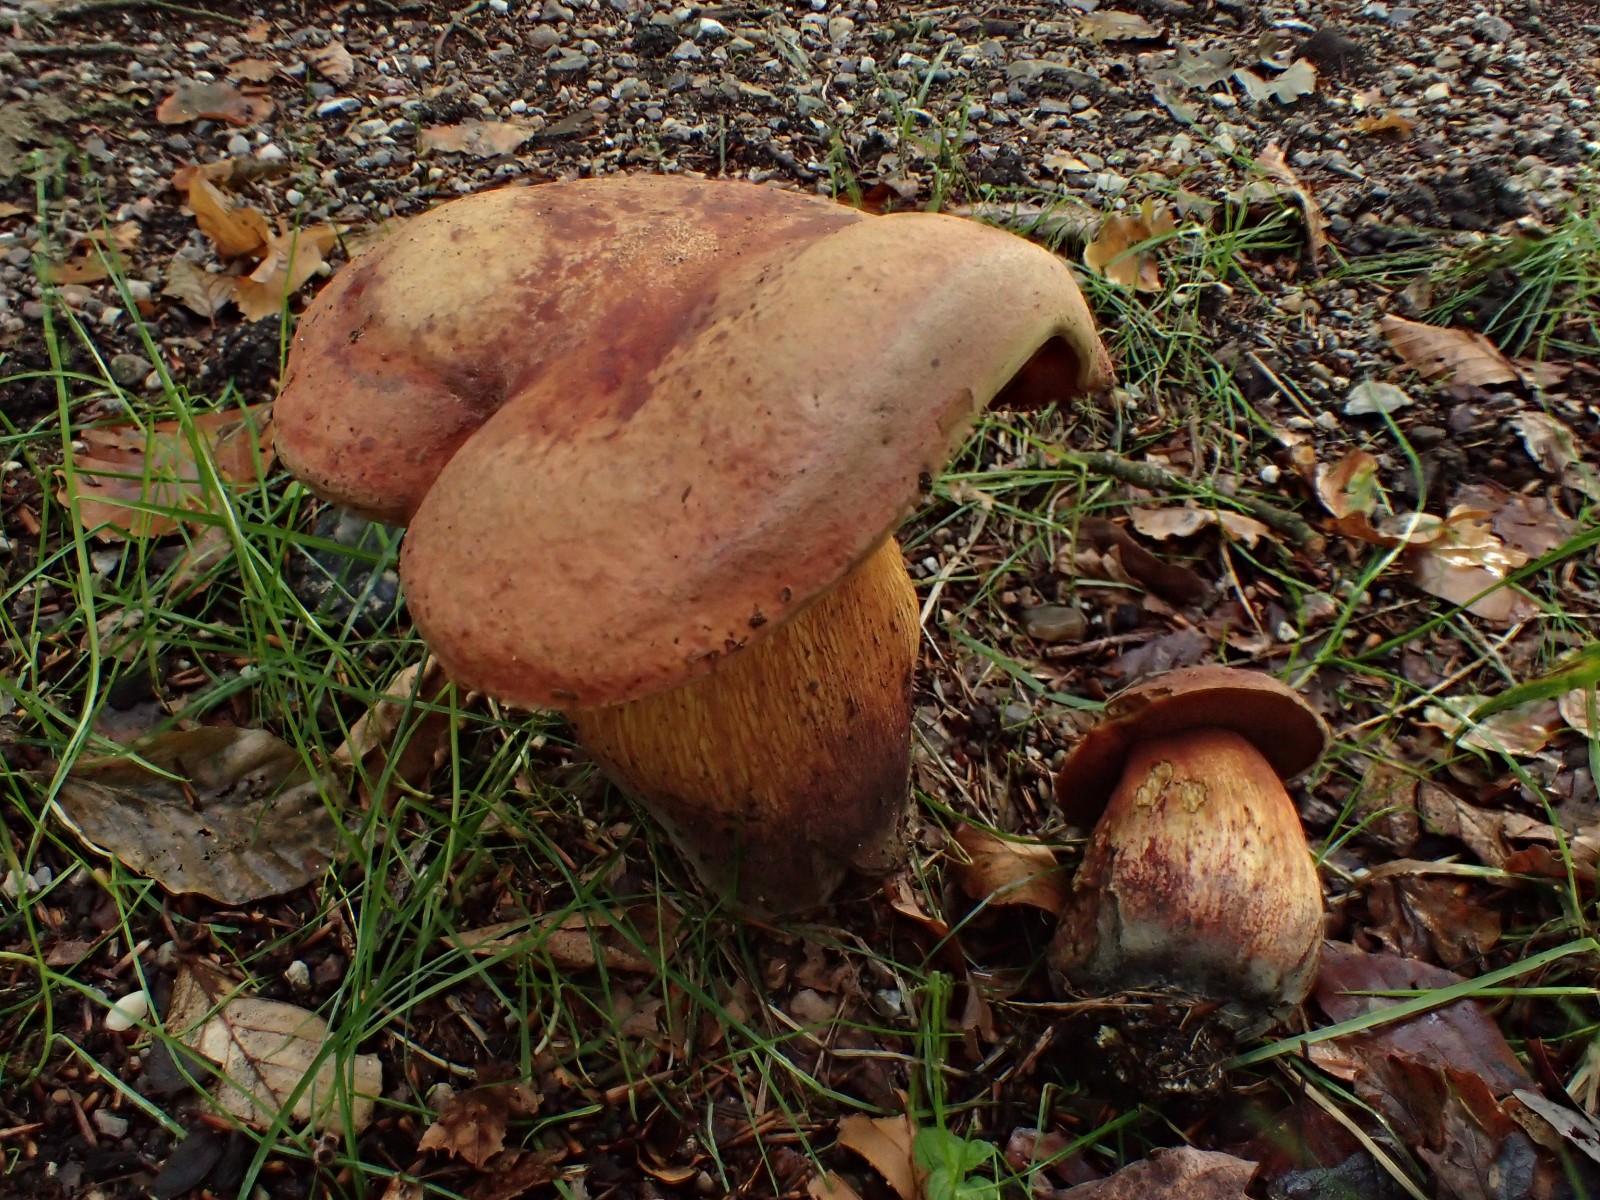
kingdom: Fungi
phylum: Basidiomycota
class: Agaricomycetes
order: Boletales
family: Boletaceae
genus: Suillellus
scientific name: Suillellus luridus
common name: netstokket indigorørhat
